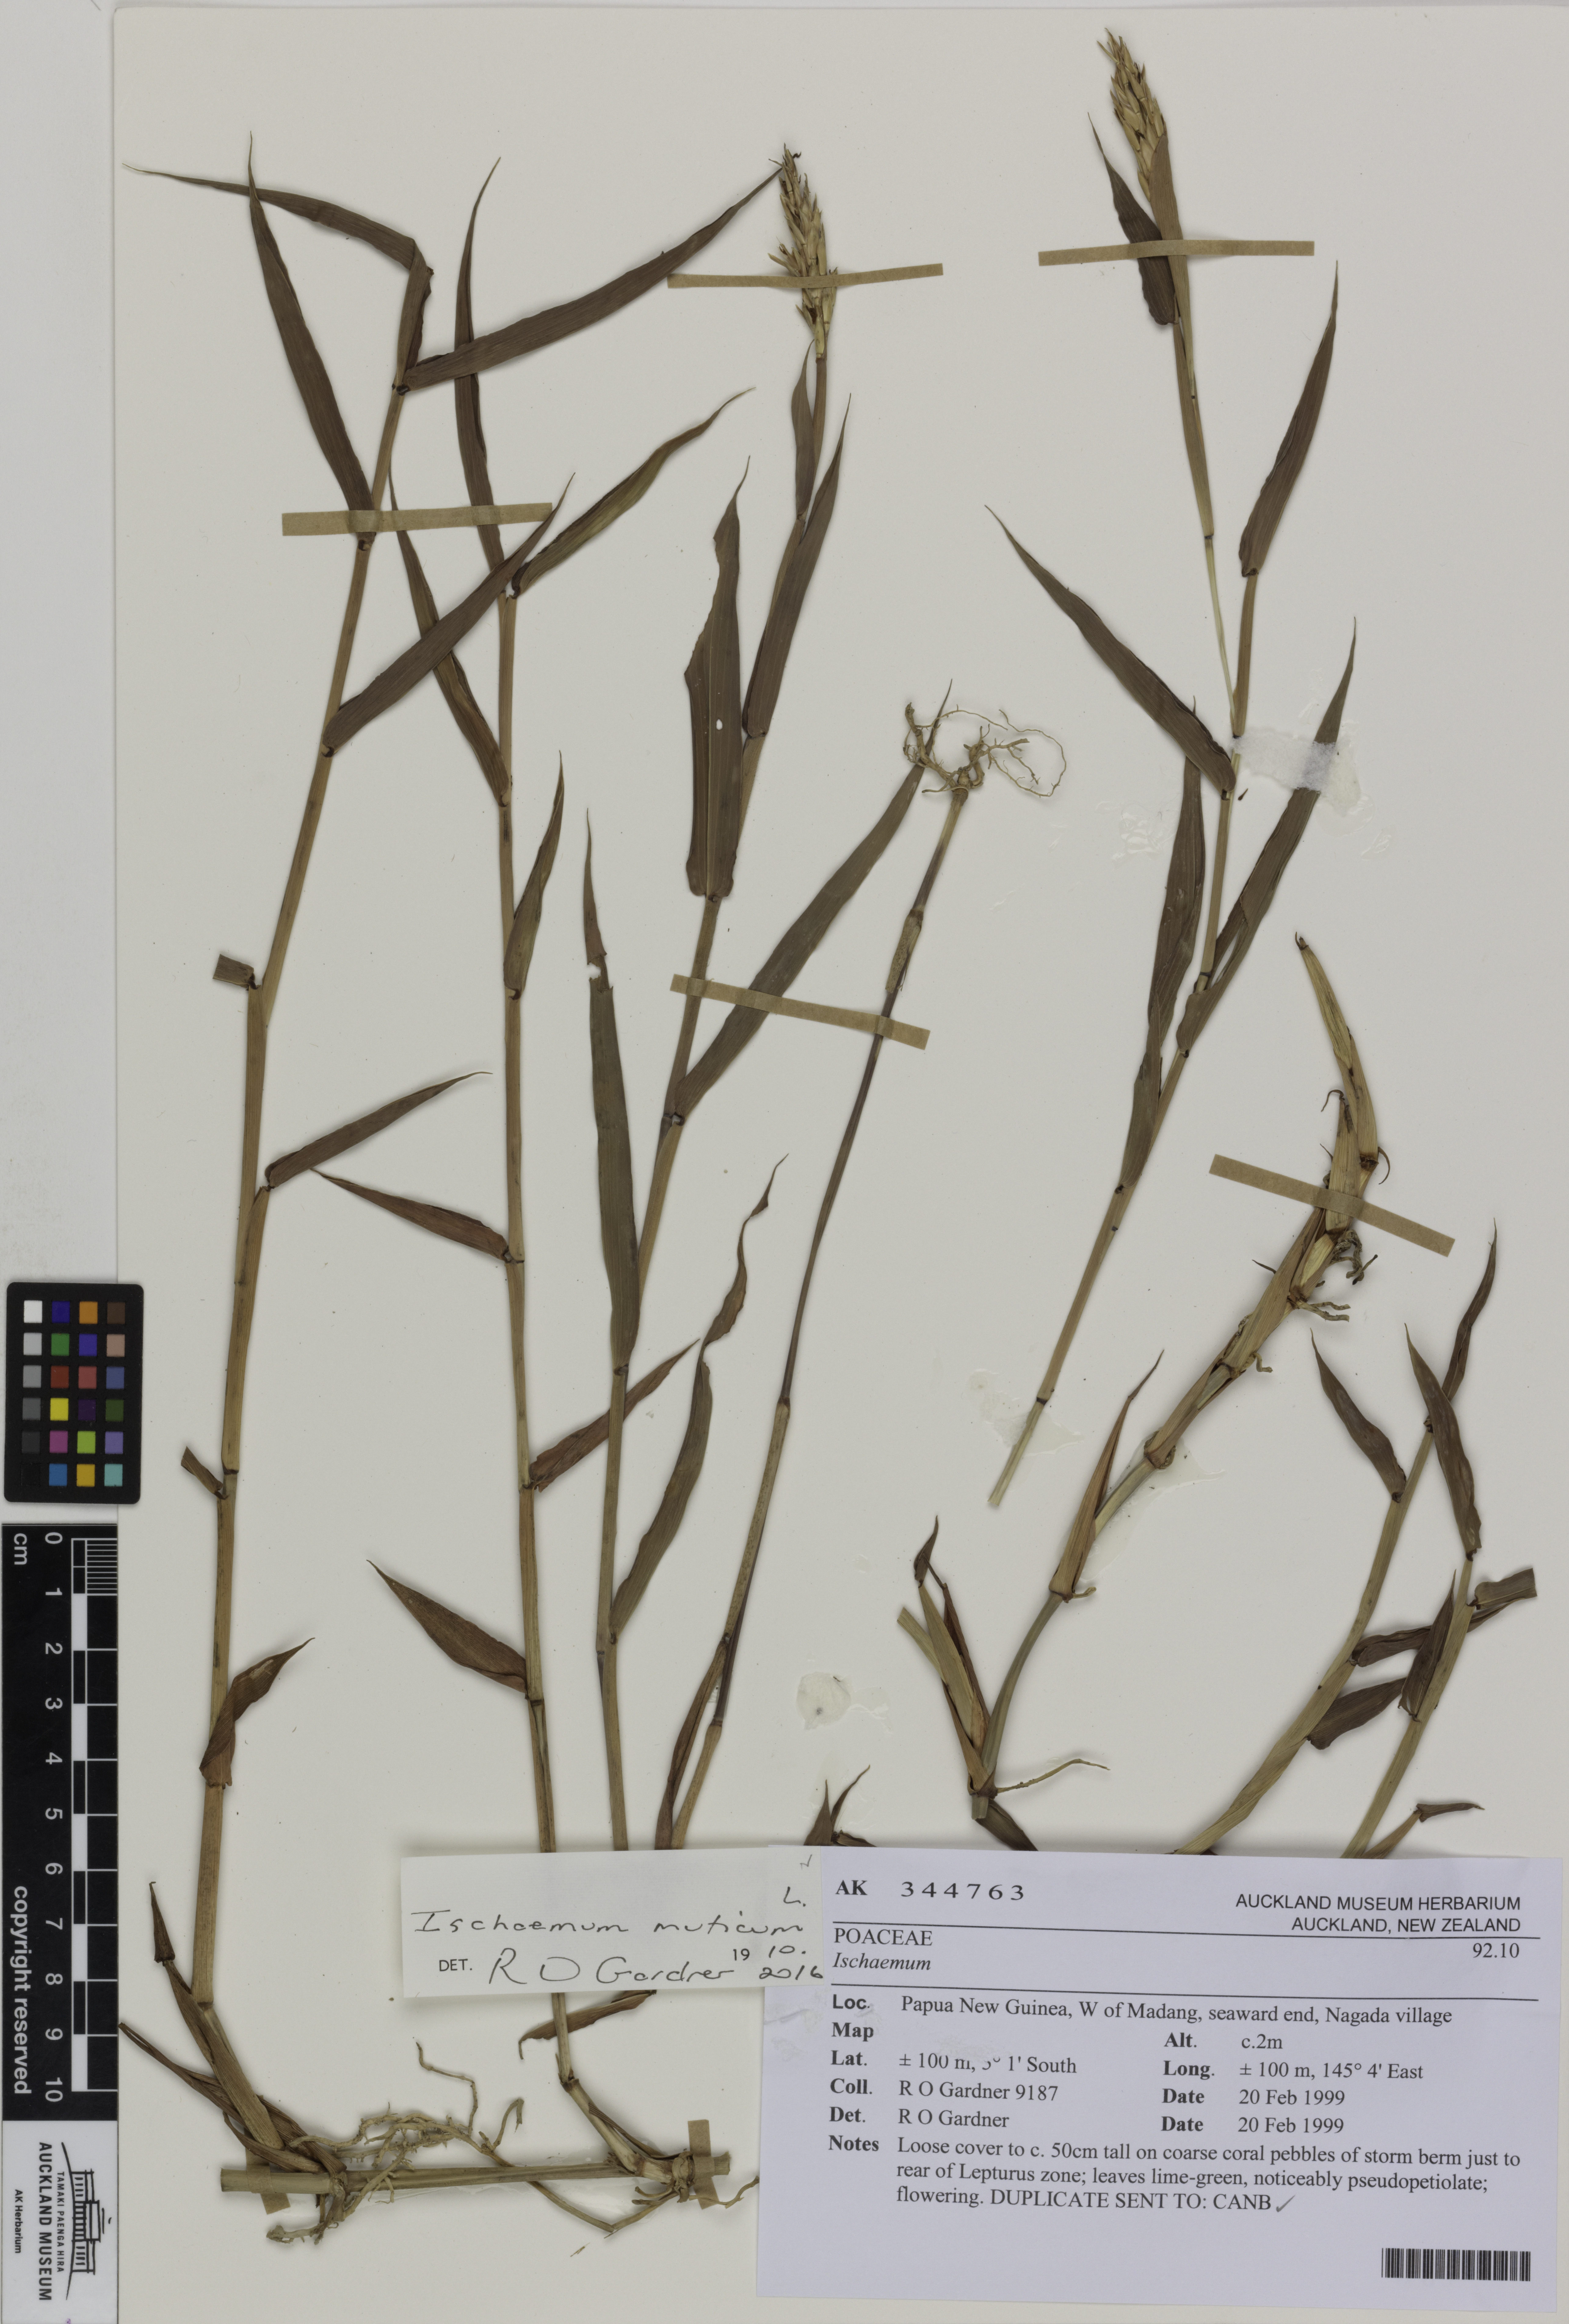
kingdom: Plantae
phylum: Tracheophyta
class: Liliopsida
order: Poales
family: Poaceae
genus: Ischaemum
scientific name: Ischaemum muticum
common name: Drought grass
